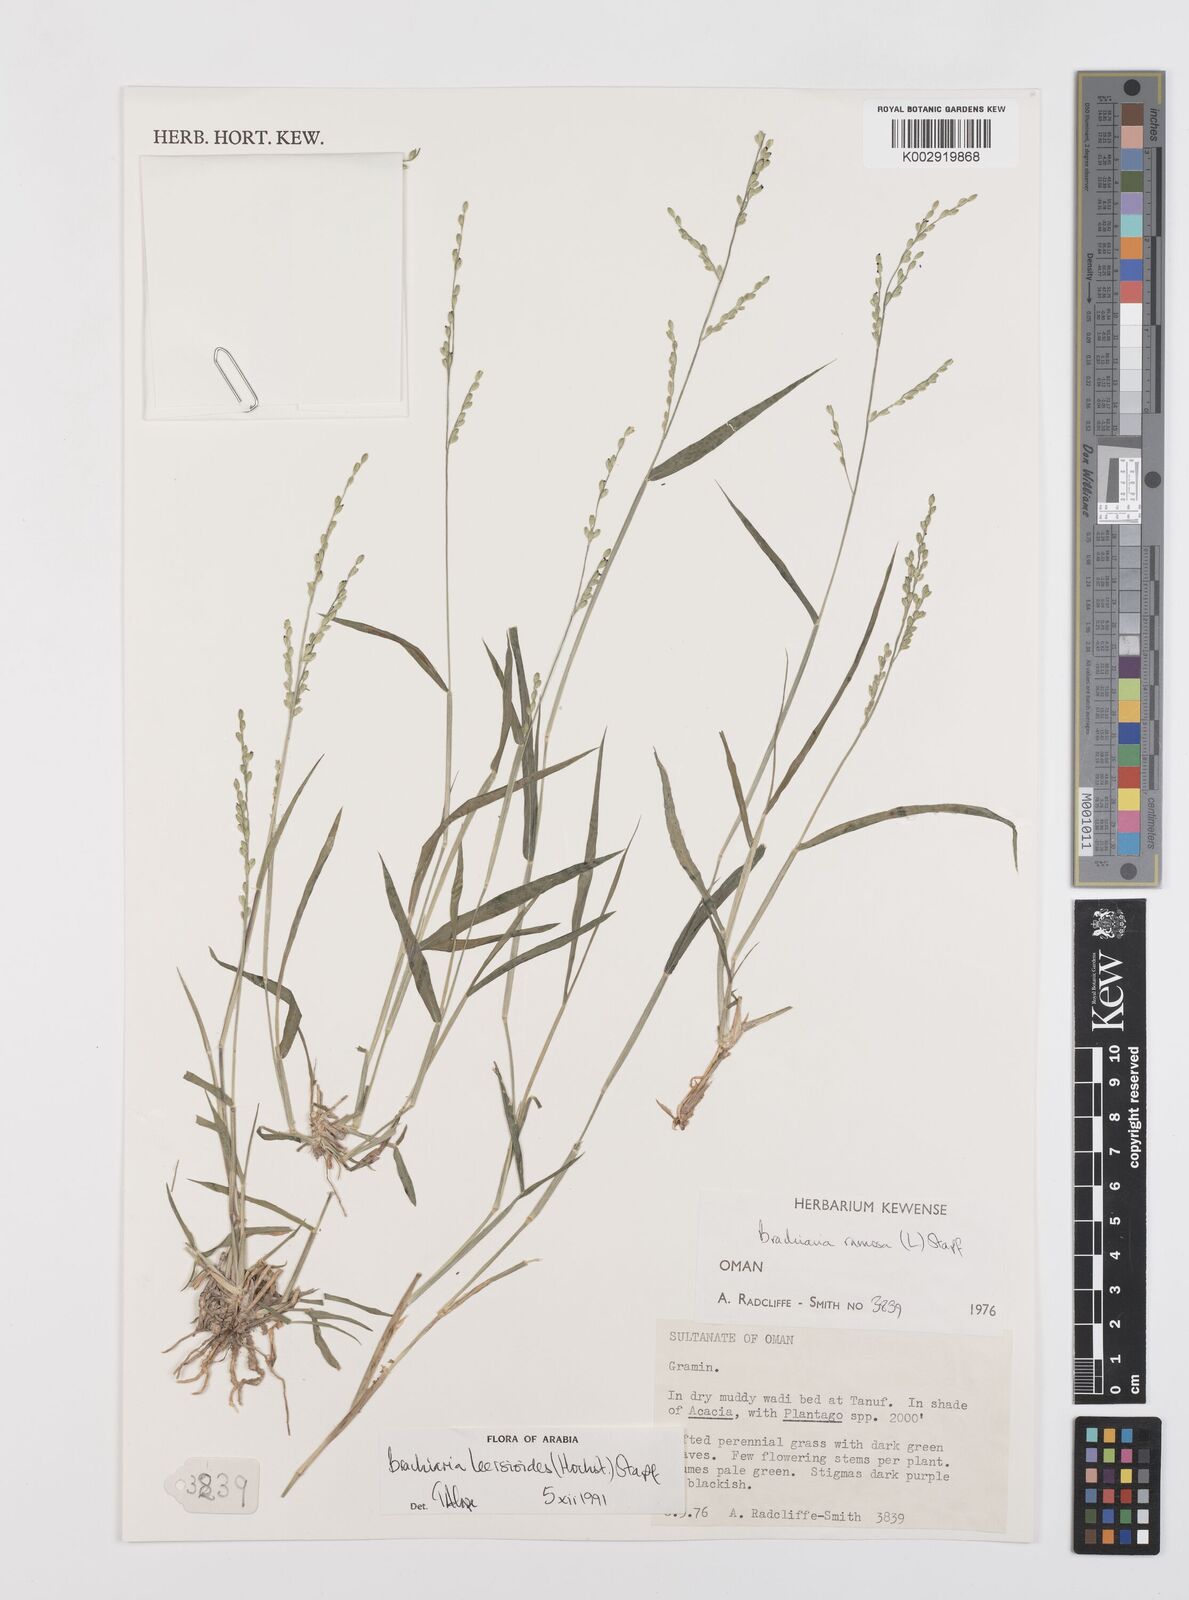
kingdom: Plantae
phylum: Tracheophyta
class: Liliopsida
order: Poales
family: Poaceae
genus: Urochloa
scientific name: Urochloa leersioides
